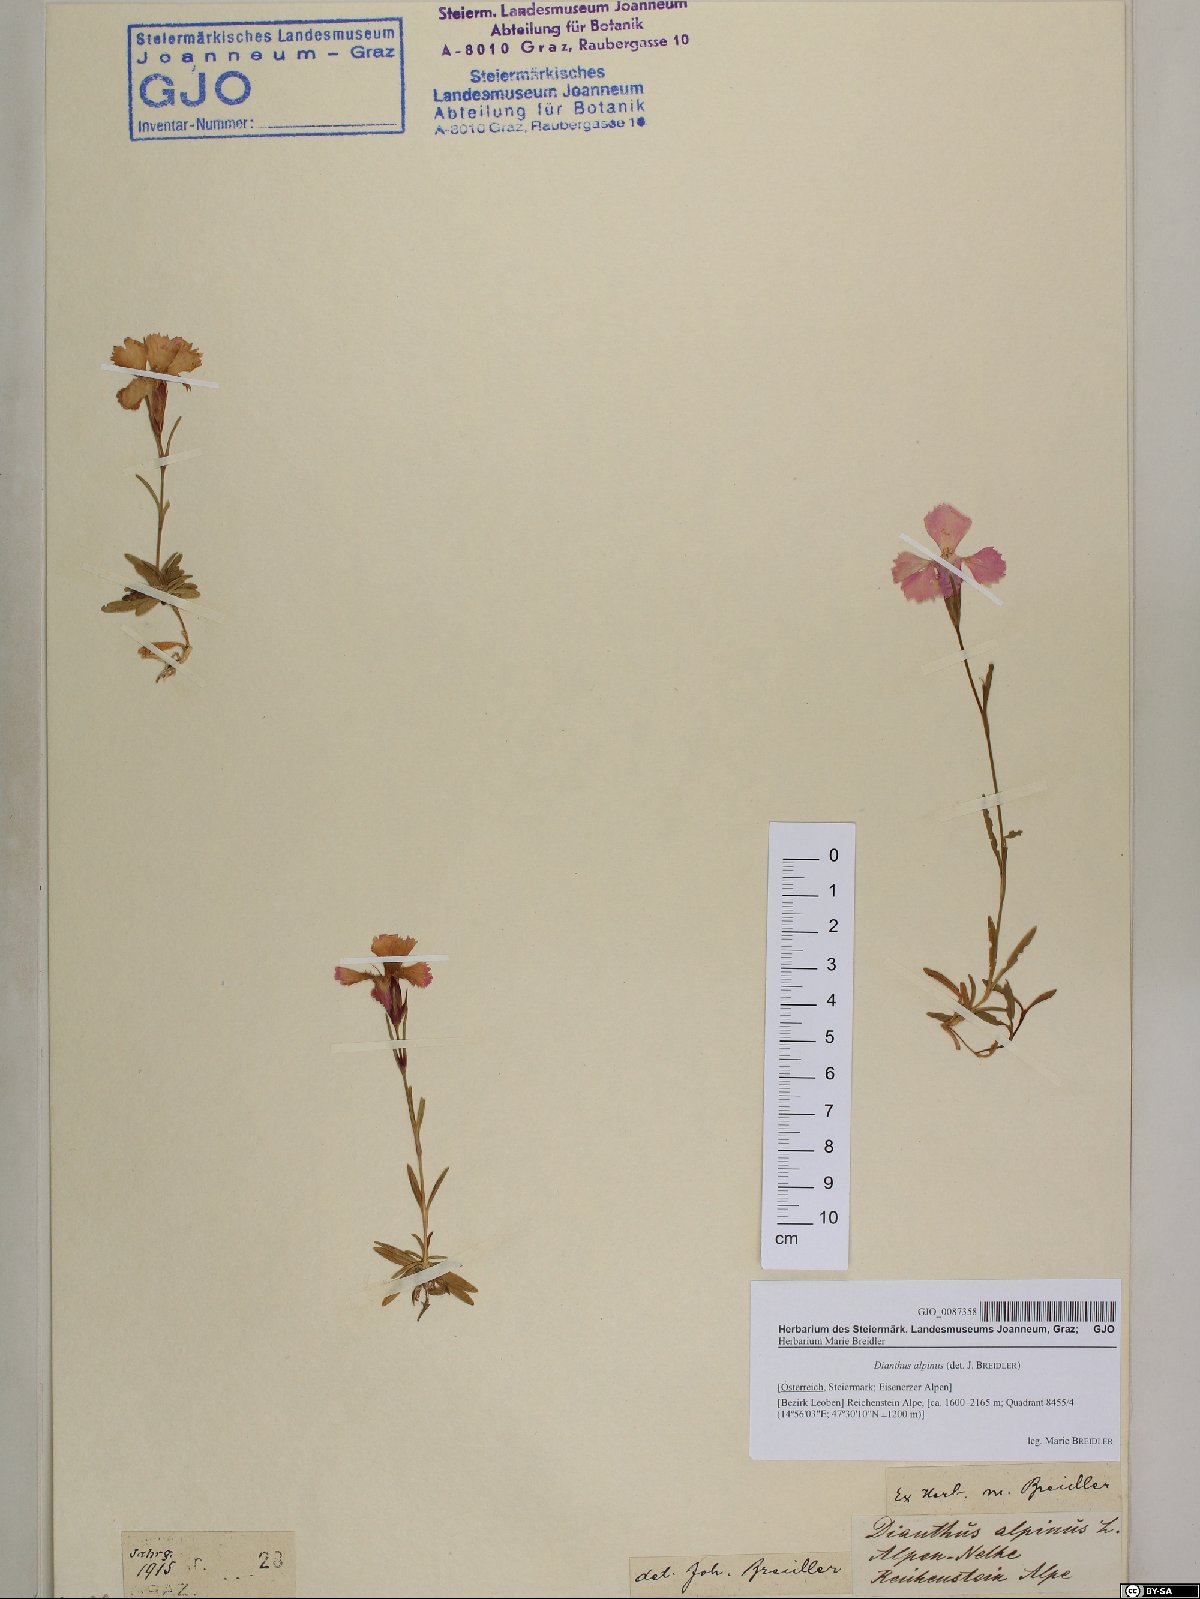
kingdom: Plantae
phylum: Tracheophyta
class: Magnoliopsida
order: Caryophyllales
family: Caryophyllaceae
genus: Dianthus
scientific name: Dianthus alpinus
